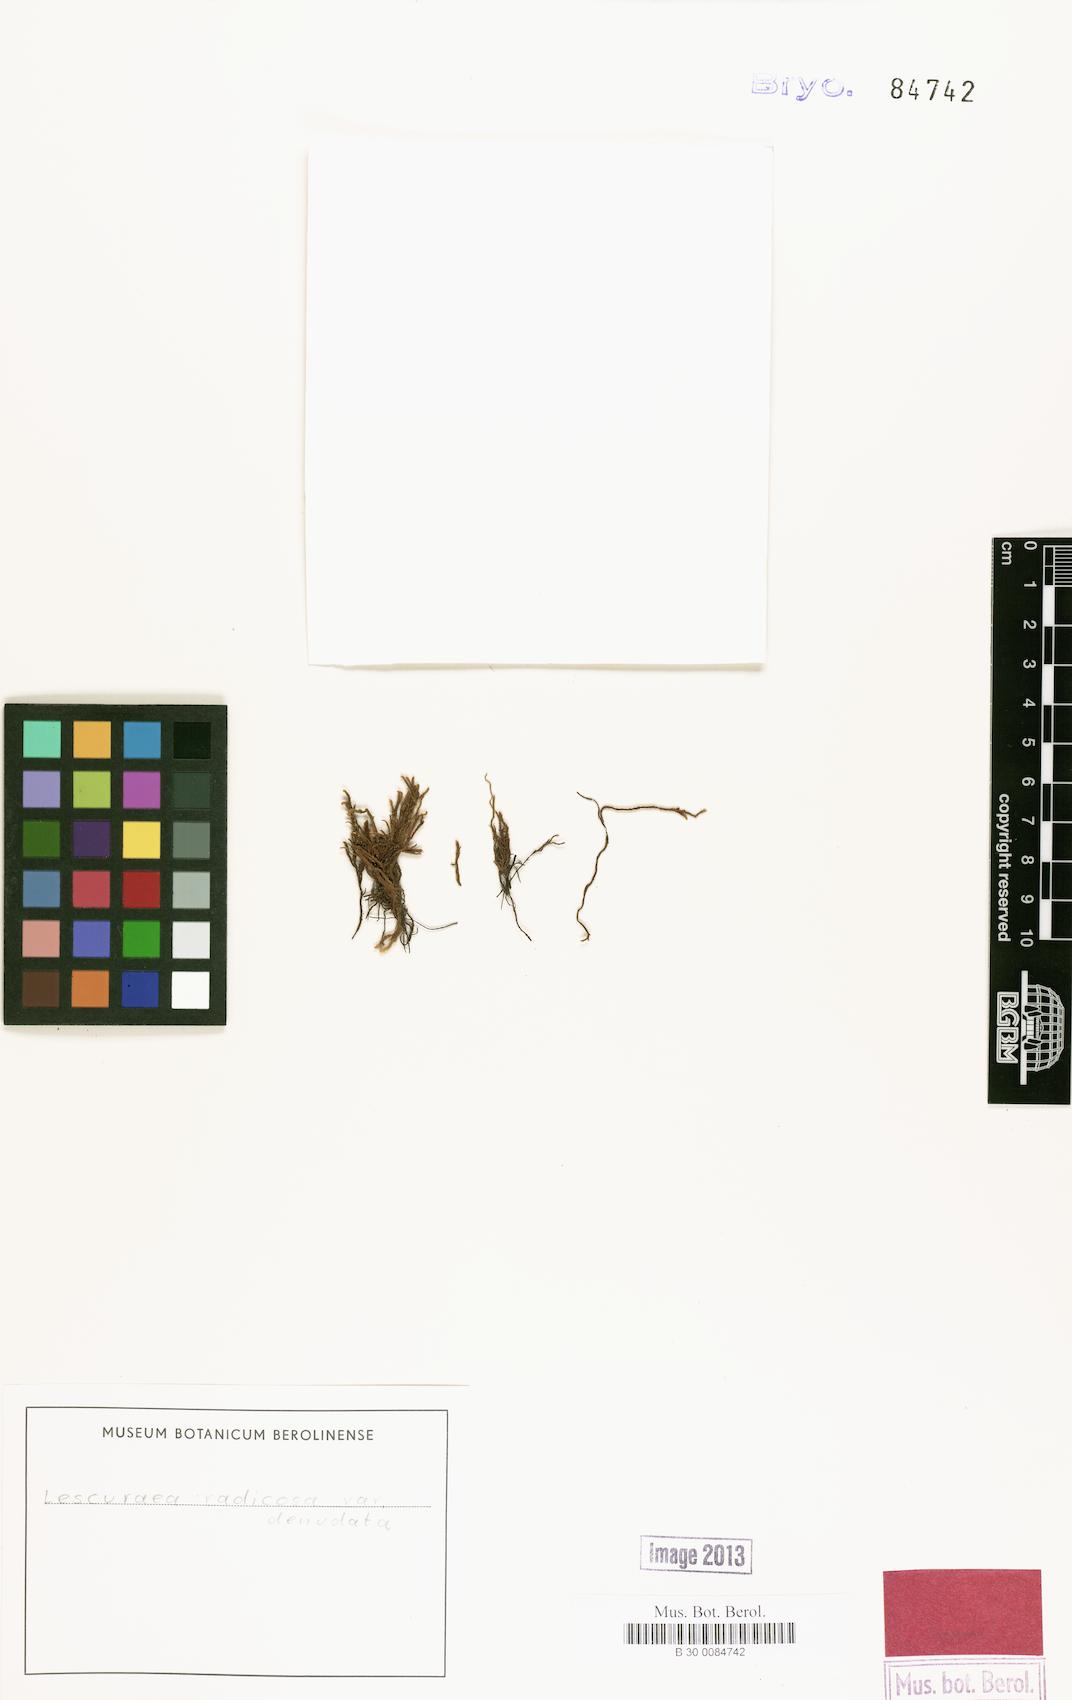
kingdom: Plantae
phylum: Bryophyta
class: Bryopsida
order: Hypnales
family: Pseudoleskeaceae
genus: Lescuraea
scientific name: Lescuraea radicosa
